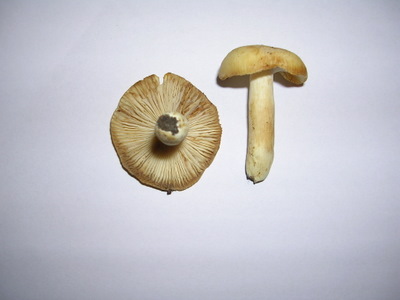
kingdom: Fungi
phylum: Basidiomycota
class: Agaricomycetes
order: Russulales
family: Russulaceae
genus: Russula
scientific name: Russula farinipes
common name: gul kam-skørhat
